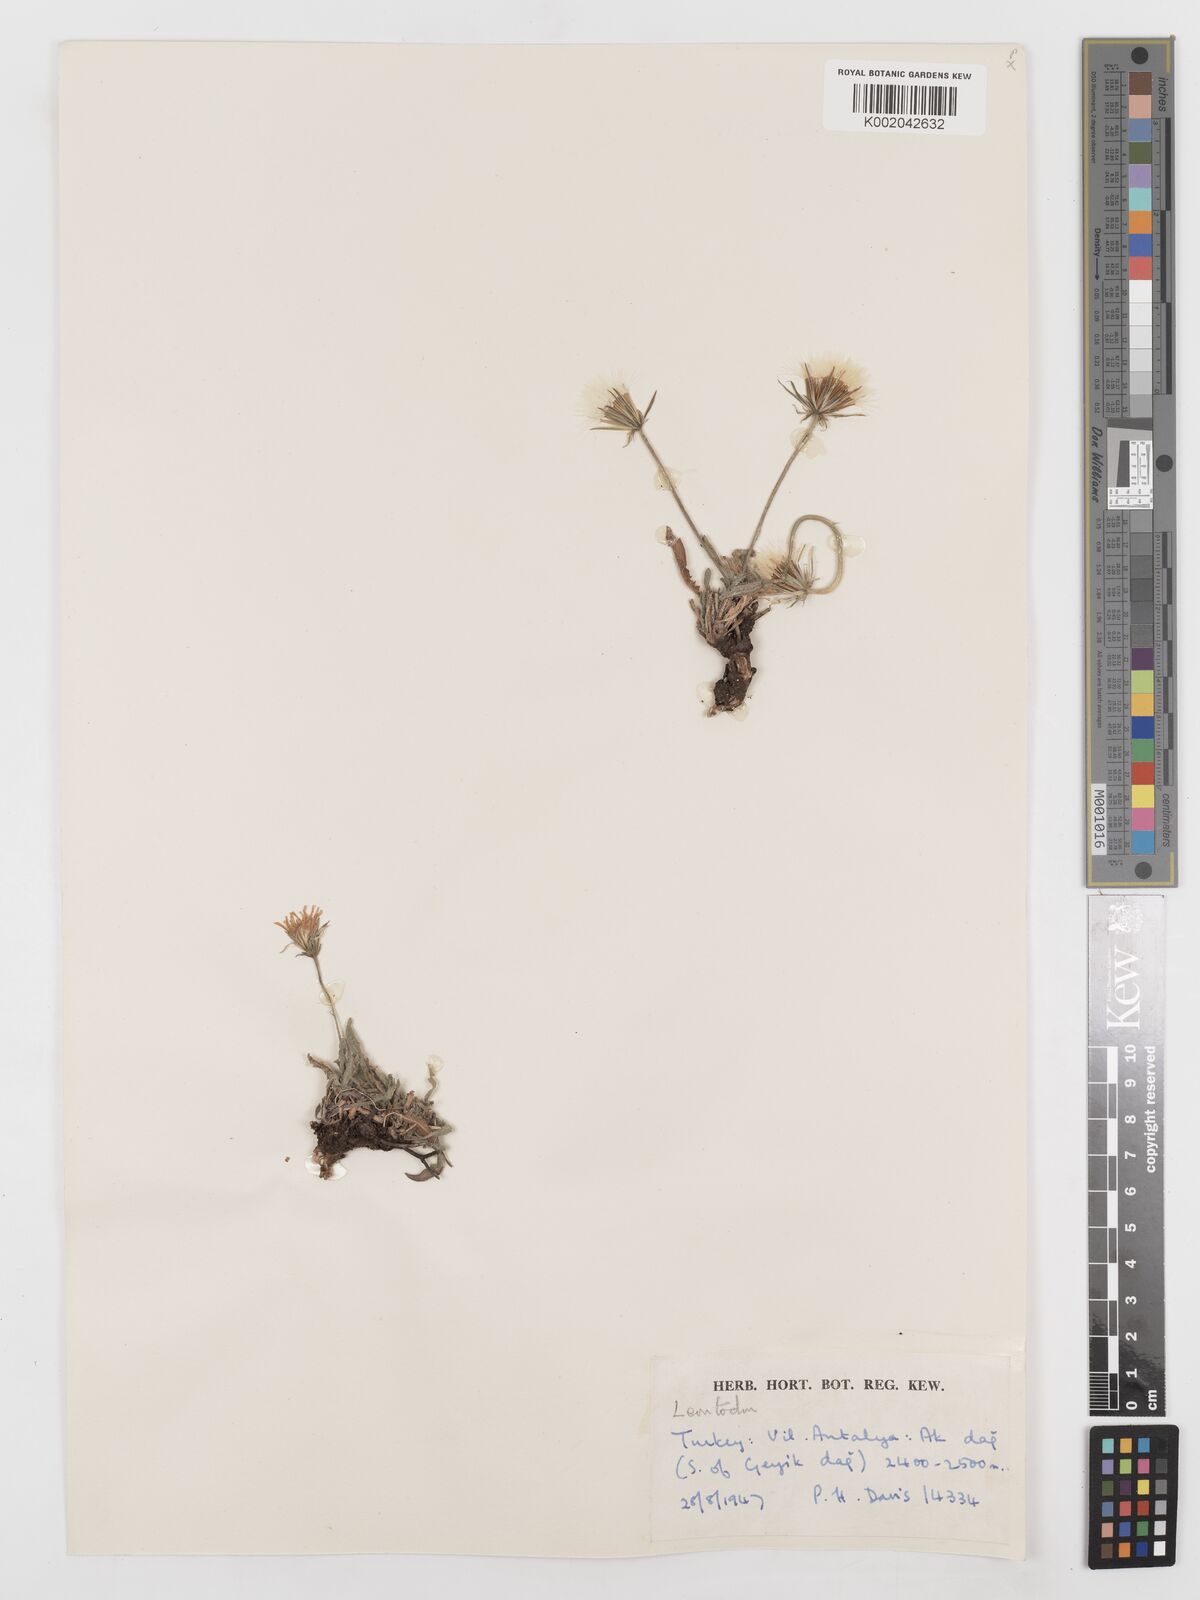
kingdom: Plantae
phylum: Tracheophyta
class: Magnoliopsida
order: Asterales
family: Asteraceae
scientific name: Asteraceae
